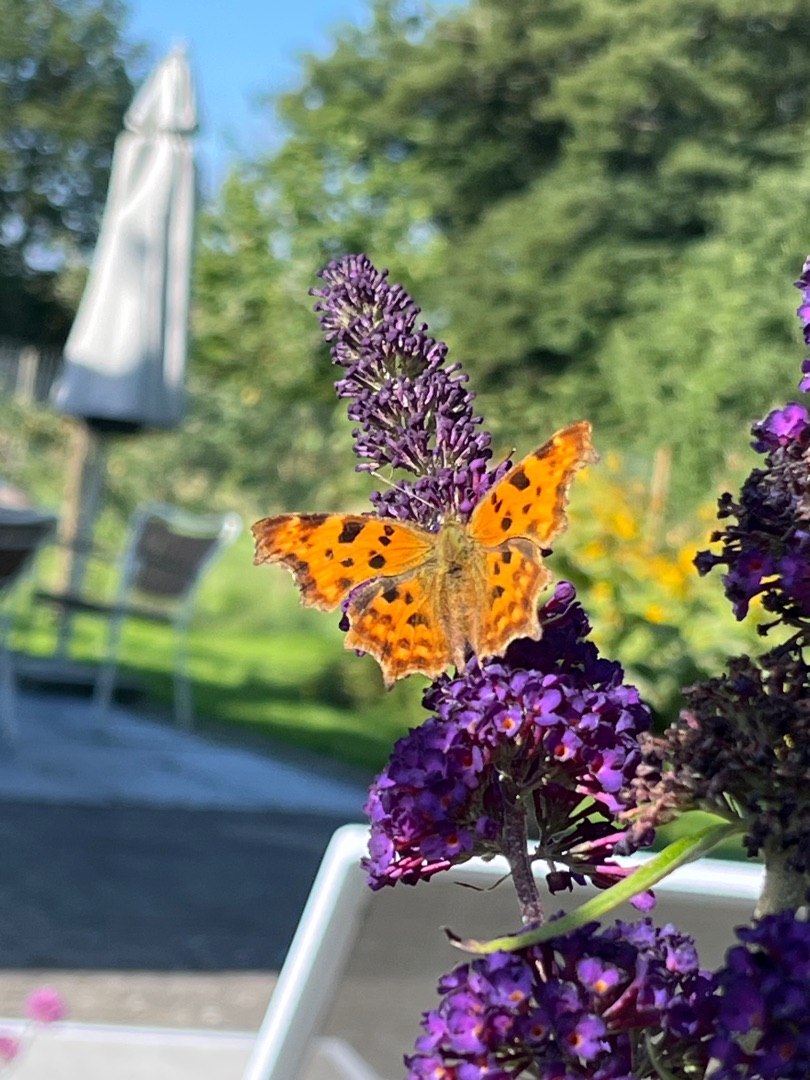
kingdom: Animalia
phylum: Arthropoda
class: Insecta
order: Lepidoptera
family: Nymphalidae
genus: Polygonia
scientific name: Polygonia c-album
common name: Det hvide C
